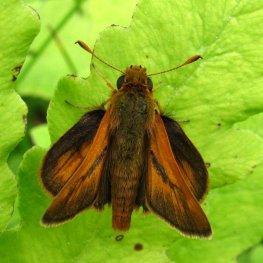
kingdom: Animalia
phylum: Arthropoda
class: Insecta
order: Lepidoptera
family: Hesperiidae
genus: Polites
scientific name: Polites
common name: Long Dash Skipper
